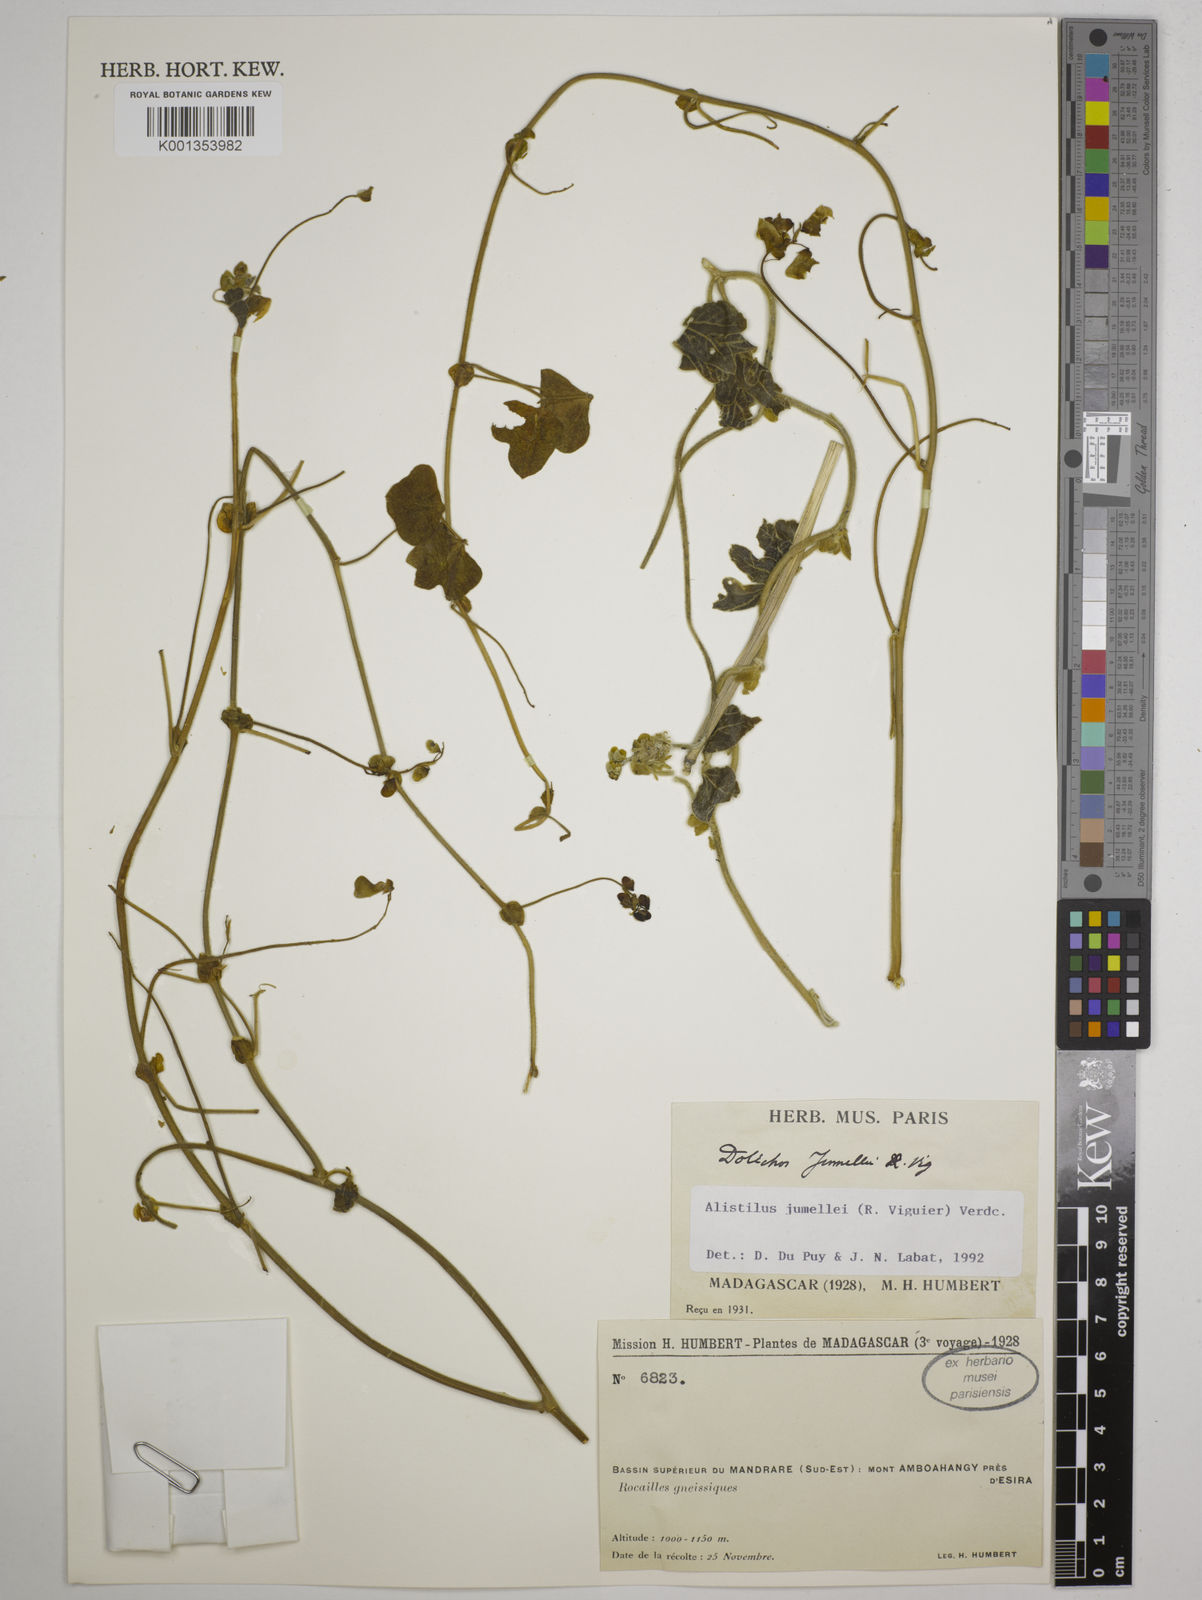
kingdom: Plantae
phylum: Tracheophyta
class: Magnoliopsida
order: Fabales
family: Fabaceae
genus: Alistilus
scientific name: Alistilus jumellei
